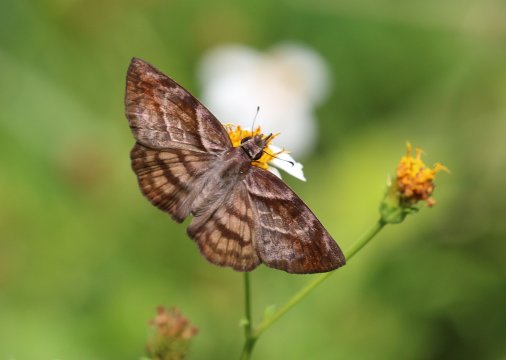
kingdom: Animalia
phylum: Arthropoda
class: Insecta
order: Lepidoptera
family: Hesperiidae
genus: Timochares
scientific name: Timochares trifasciata
